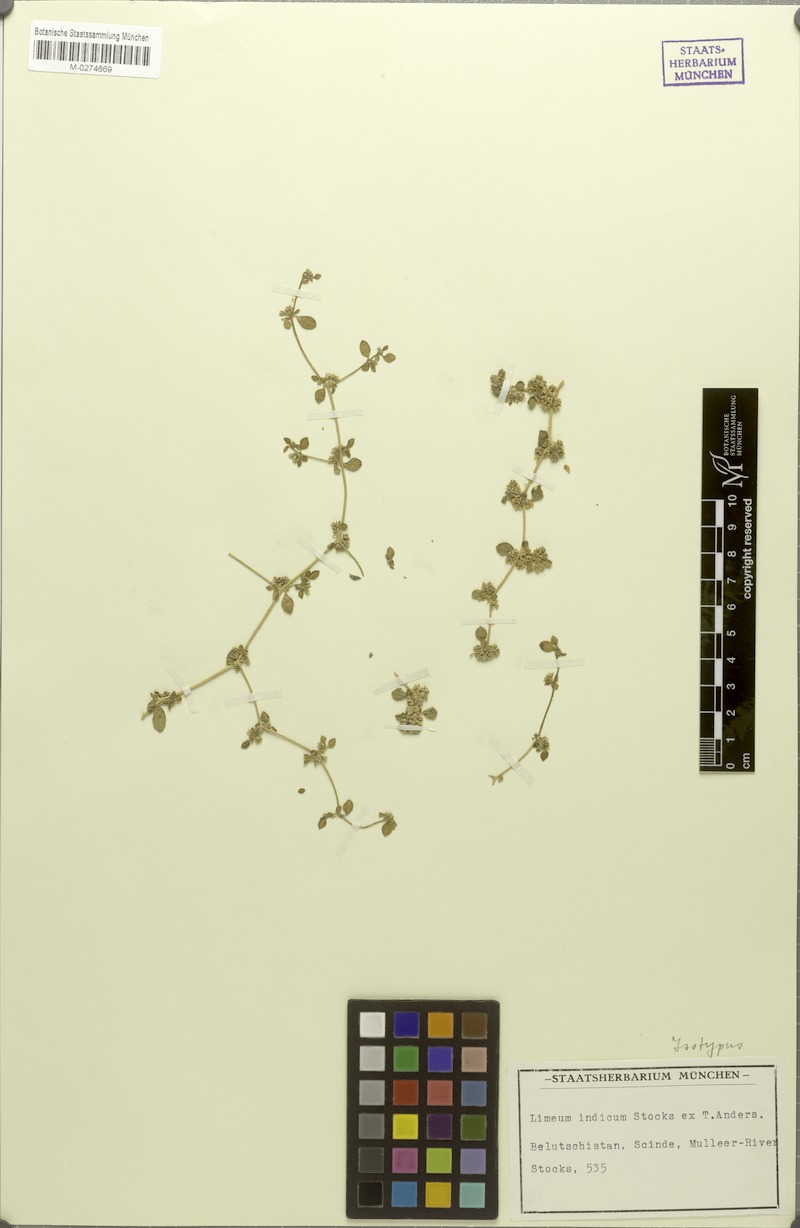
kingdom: Plantae
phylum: Tracheophyta
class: Magnoliopsida
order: Caryophyllales
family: Limeaceae
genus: Limeum
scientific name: Limeum obovatum
